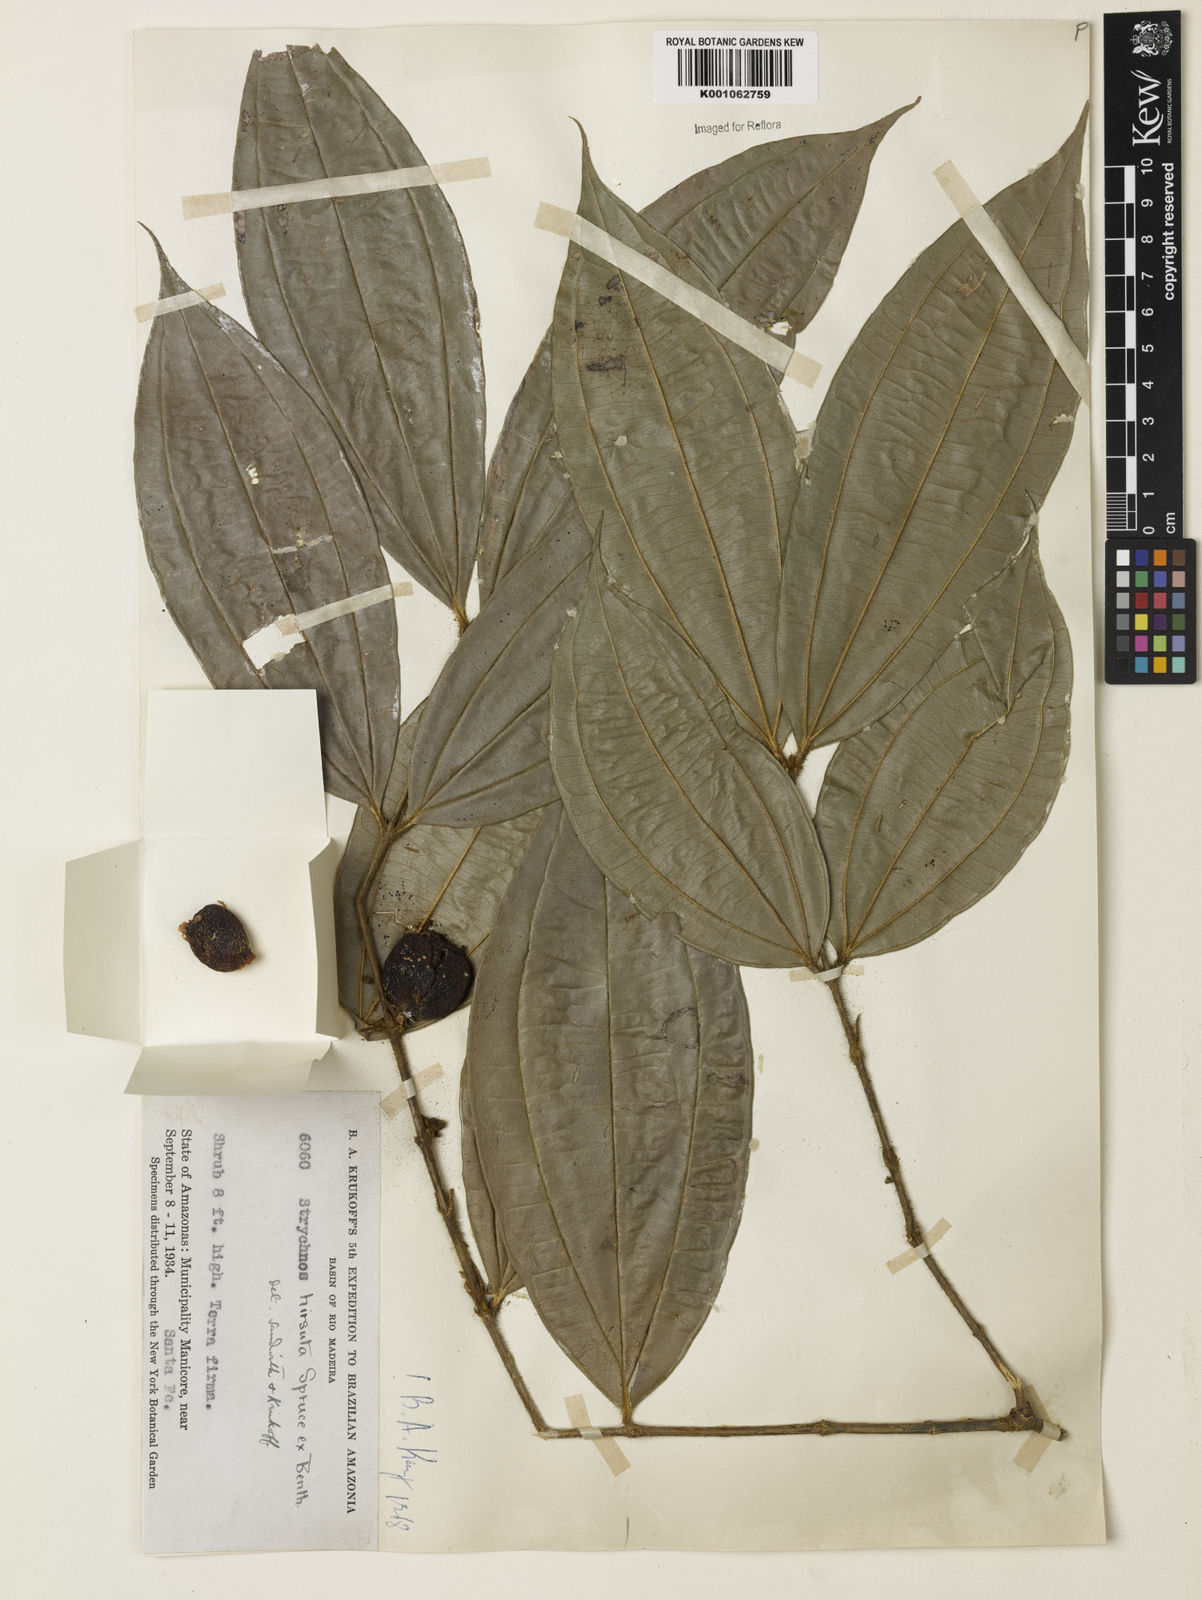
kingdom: Plantae
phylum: Tracheophyta
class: Magnoliopsida
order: Gentianales
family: Loganiaceae
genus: Strychnos
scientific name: Strychnos hirsuta
